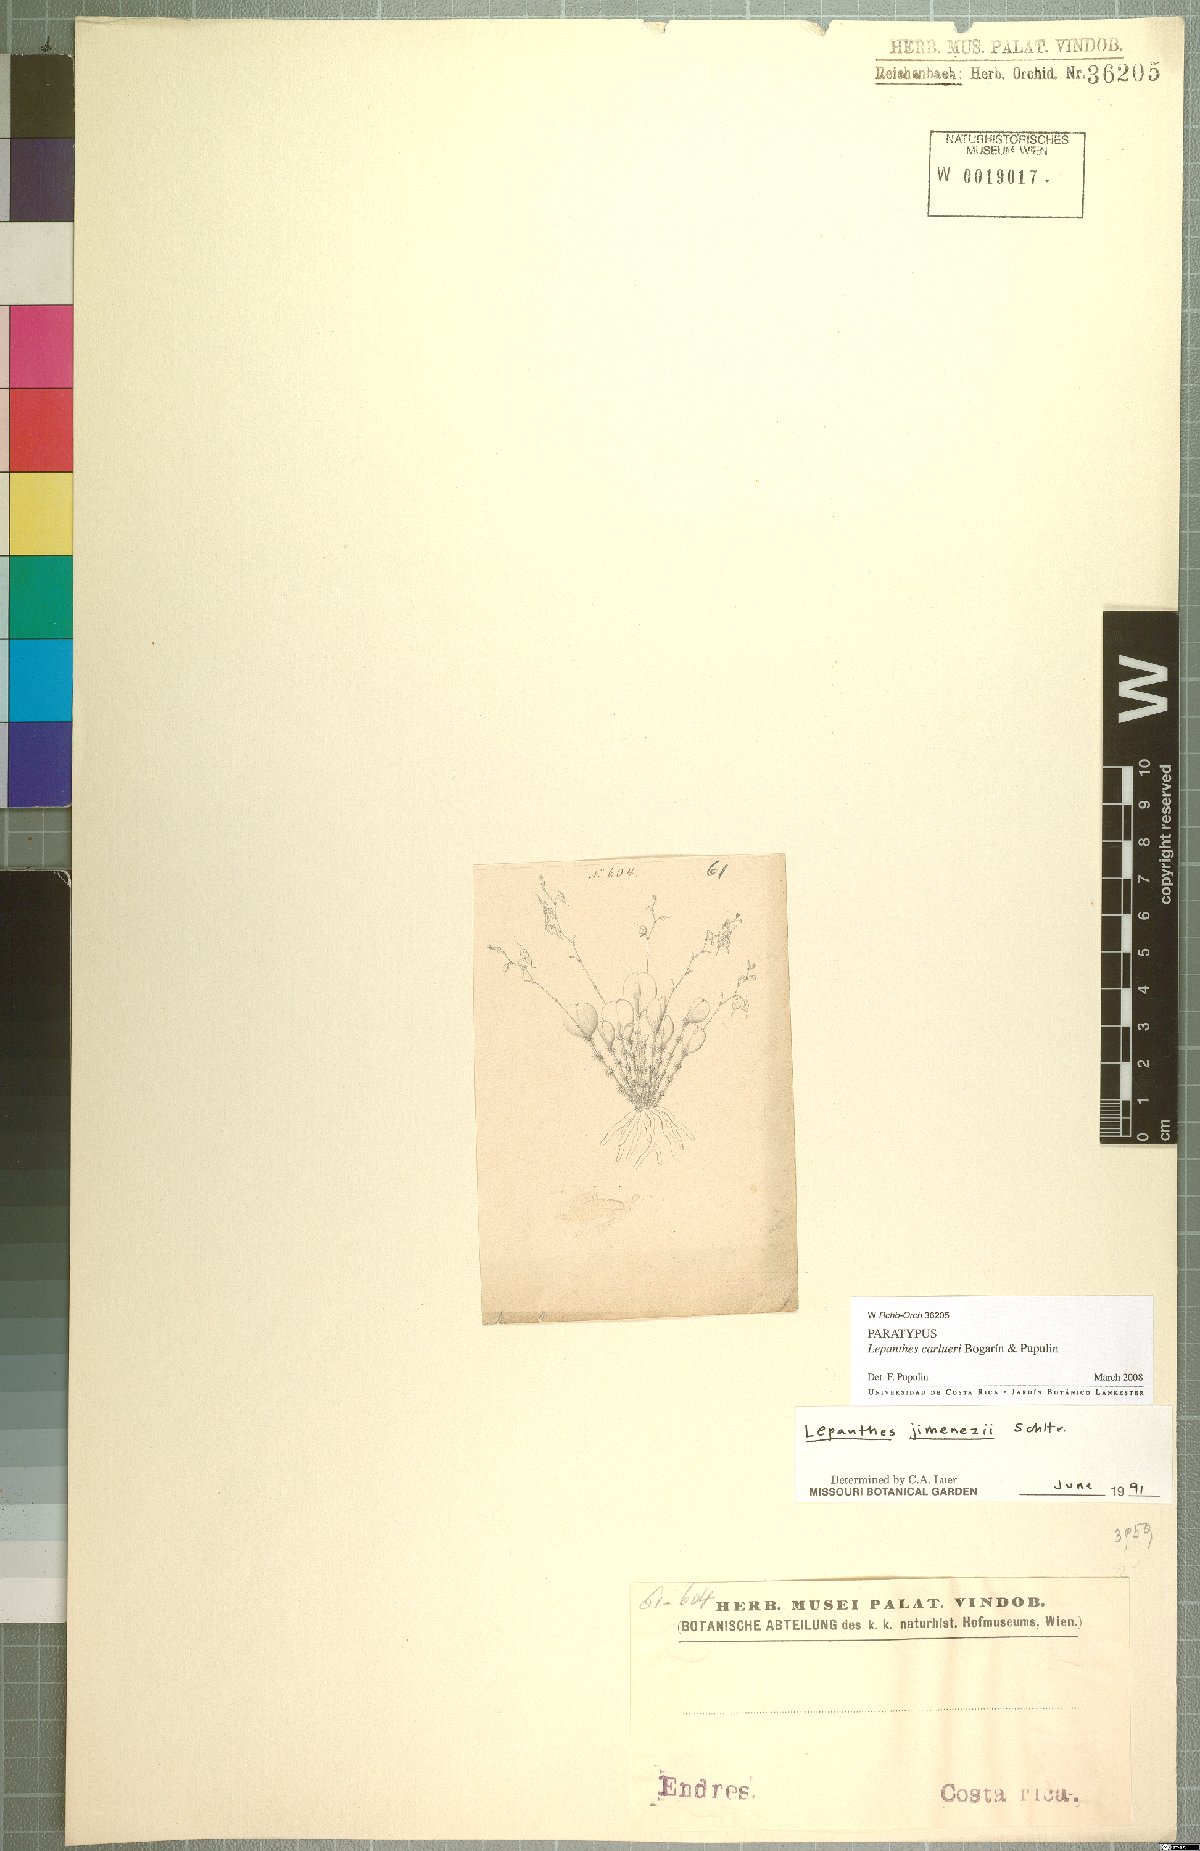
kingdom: Plantae
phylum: Tracheophyta
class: Liliopsida
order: Asparagales
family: Orchidaceae
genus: Lepanthes
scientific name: Lepanthes caroli-lueri
